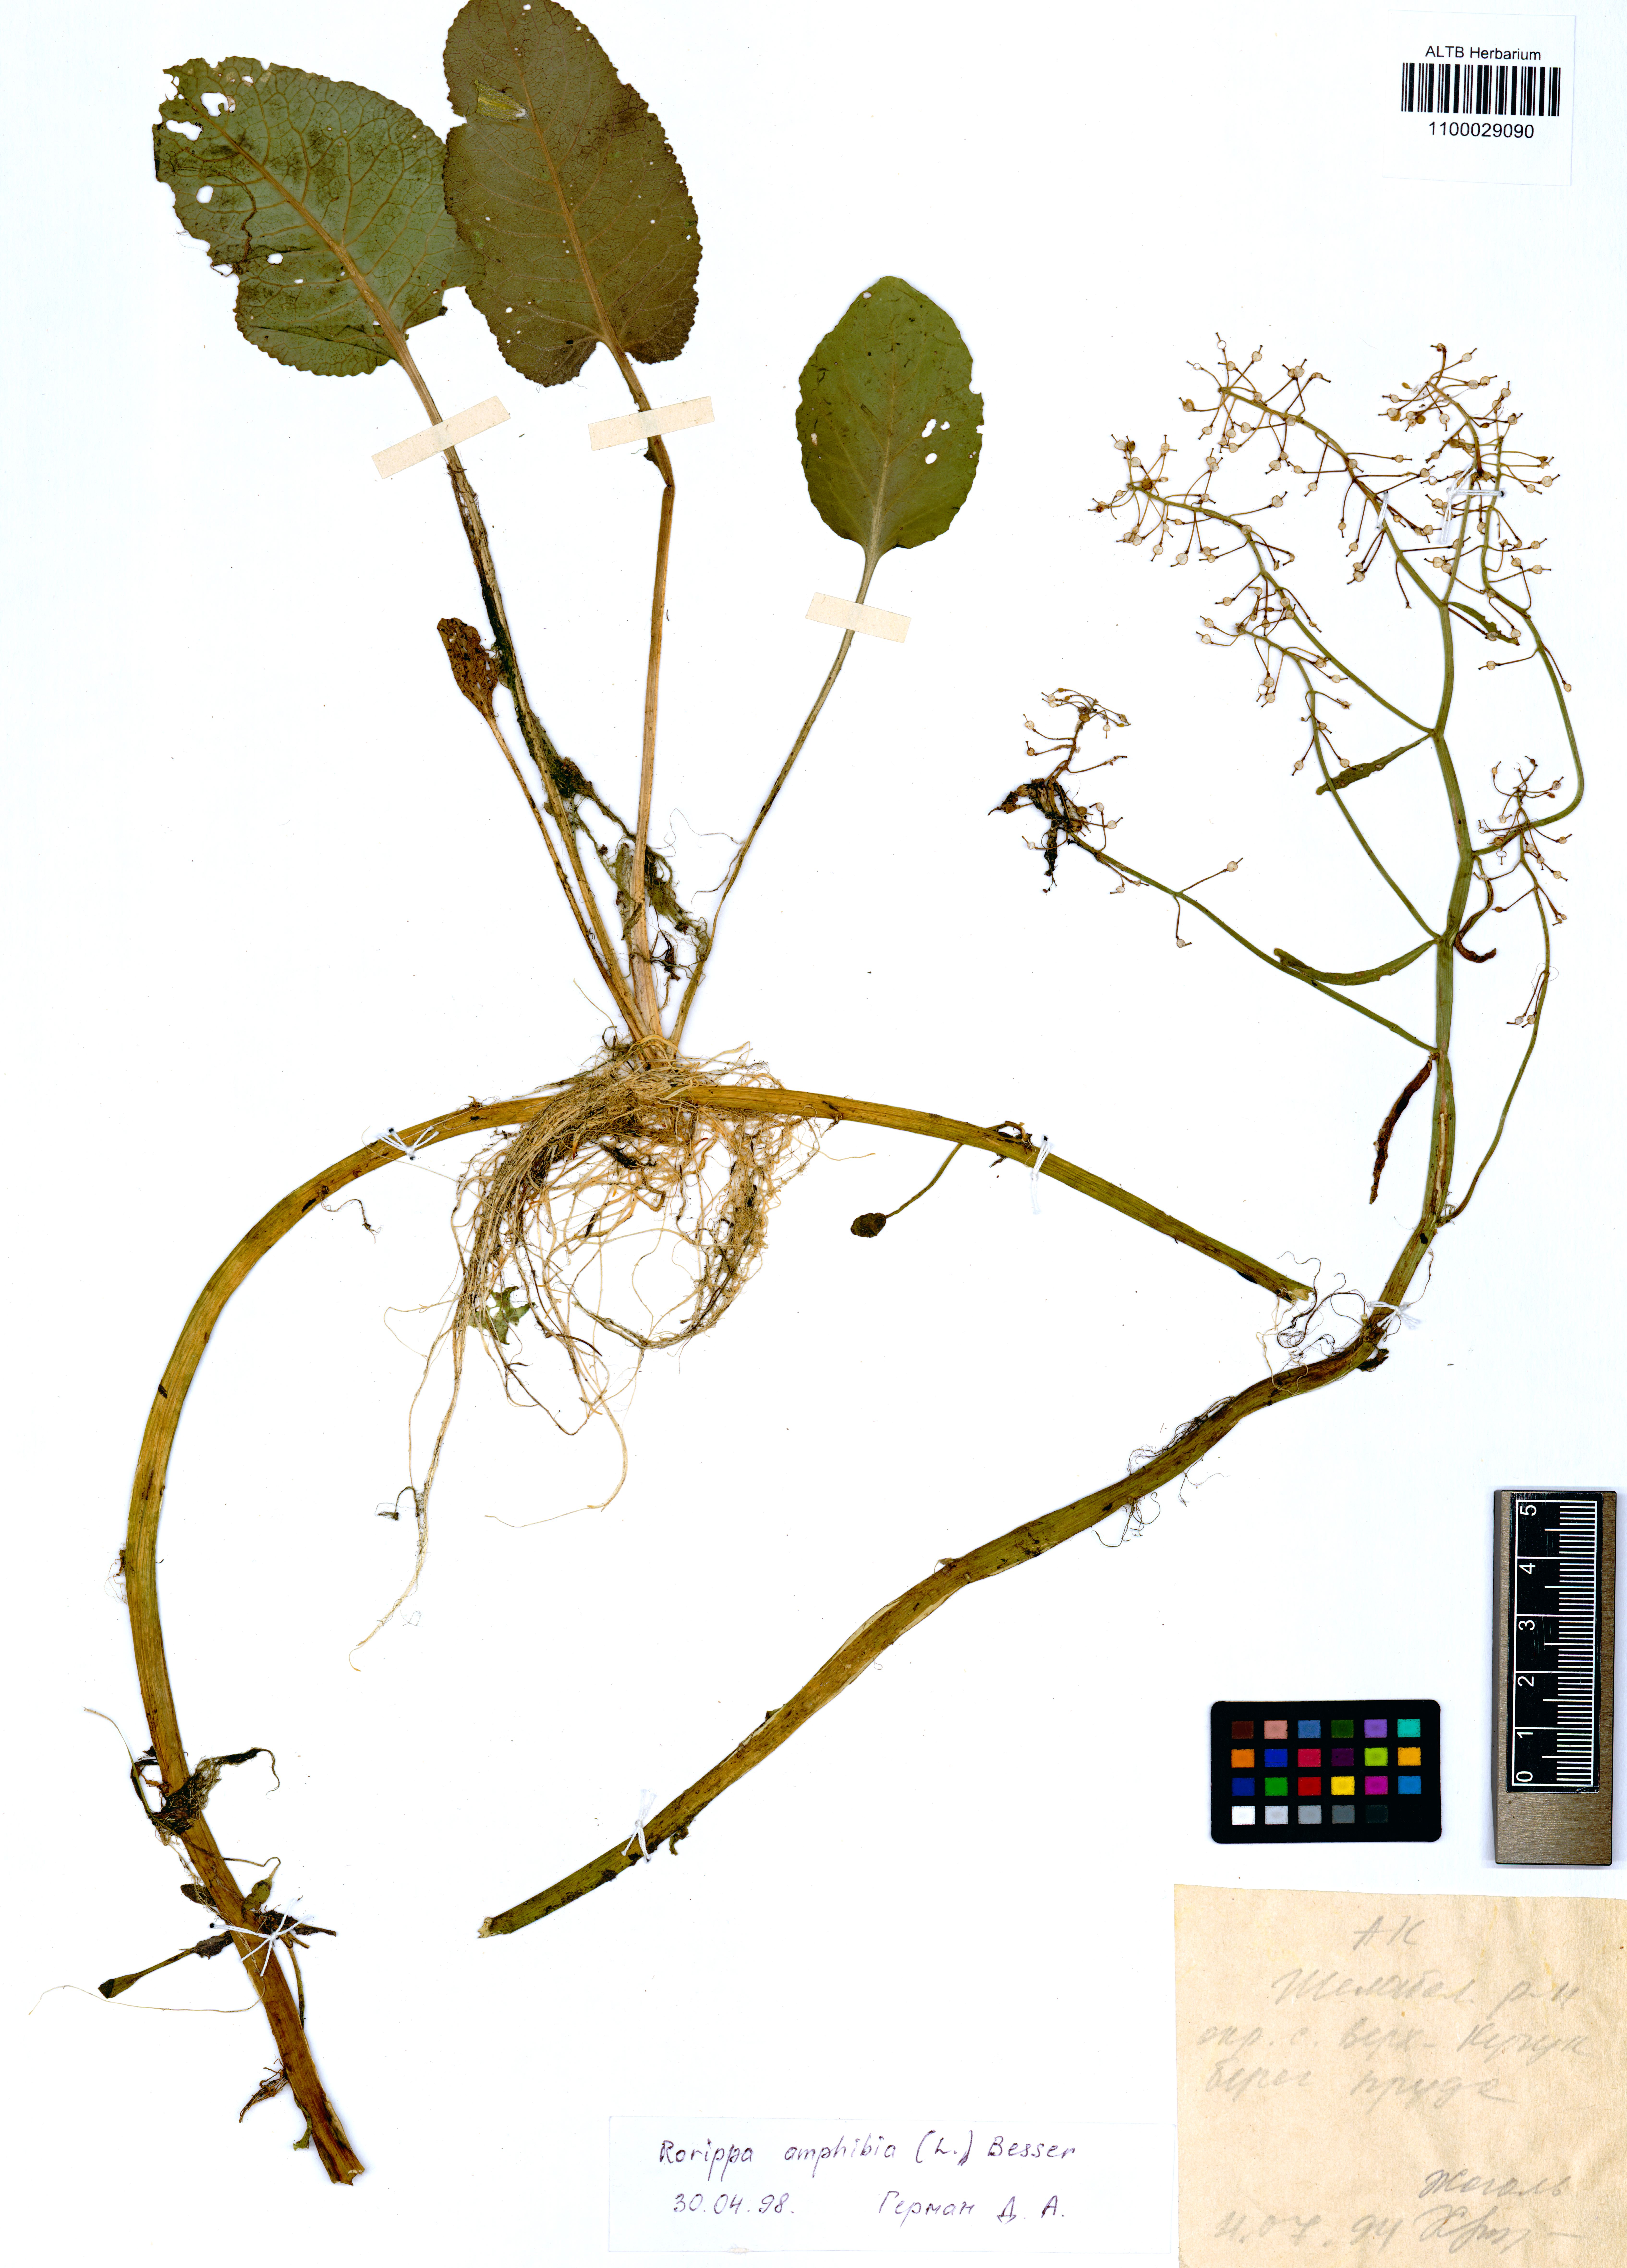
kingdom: Plantae
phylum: Tracheophyta
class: Magnoliopsida
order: Brassicales
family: Brassicaceae
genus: Rorippa
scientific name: Rorippa amphibia
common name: Great yellow-cress
